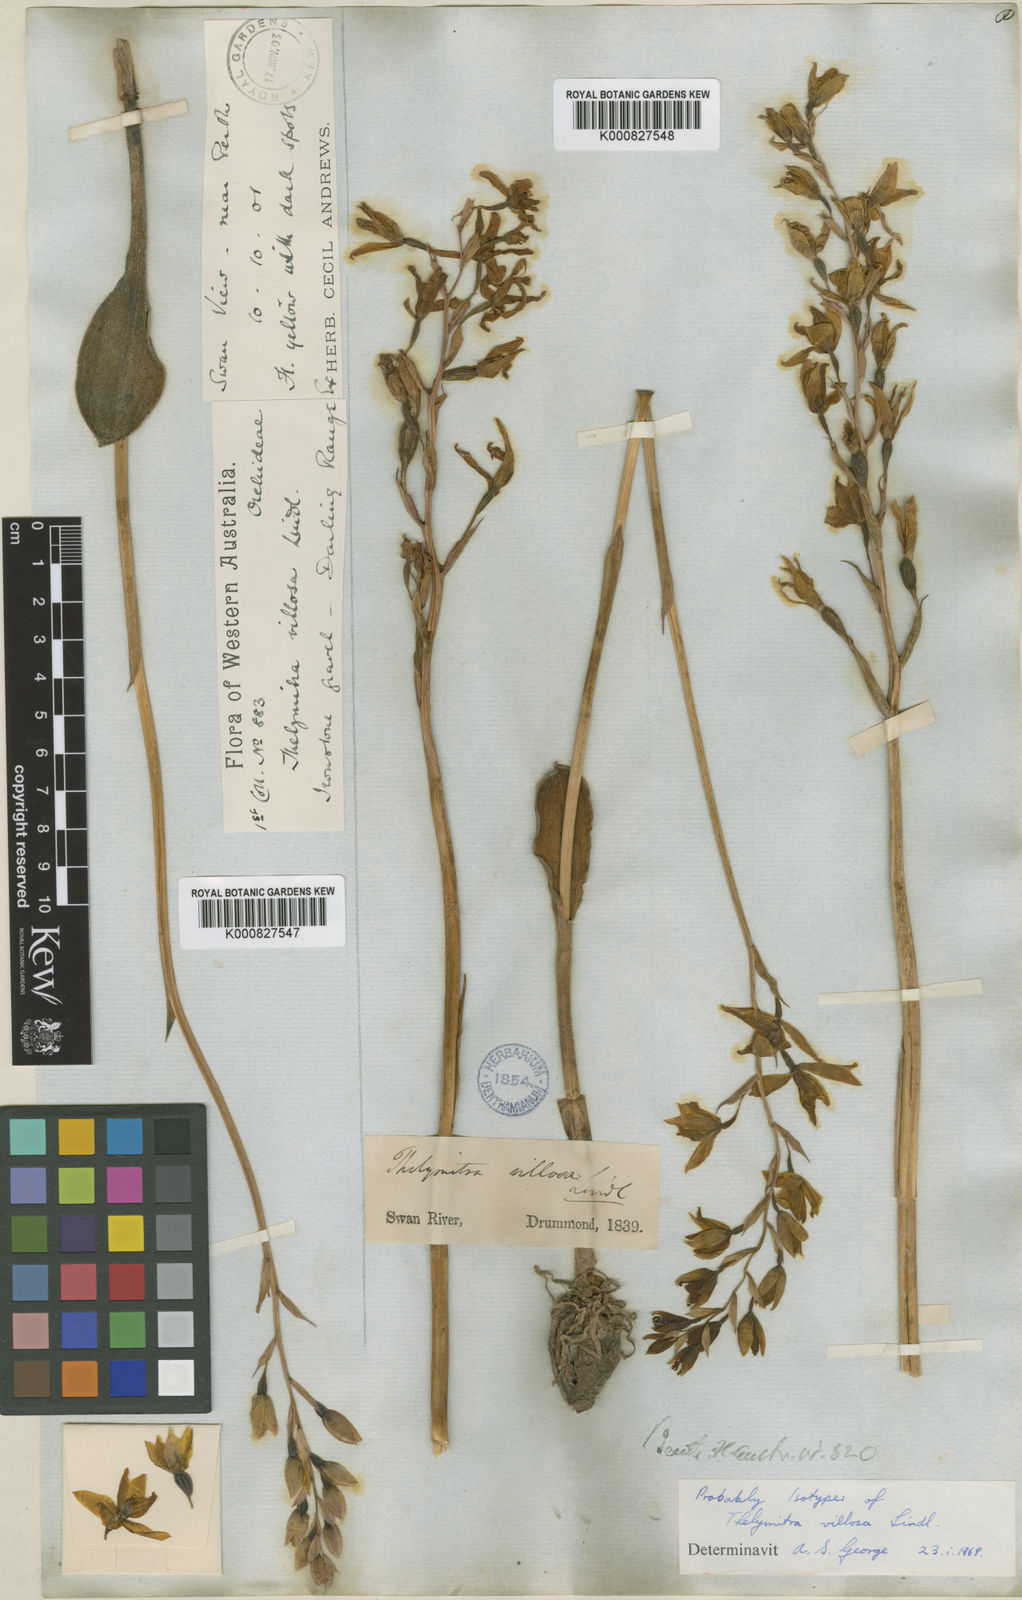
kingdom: Plantae
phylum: Tracheophyta
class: Liliopsida
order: Asparagales
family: Orchidaceae
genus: Thelymitra
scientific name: Thelymitra villosa
